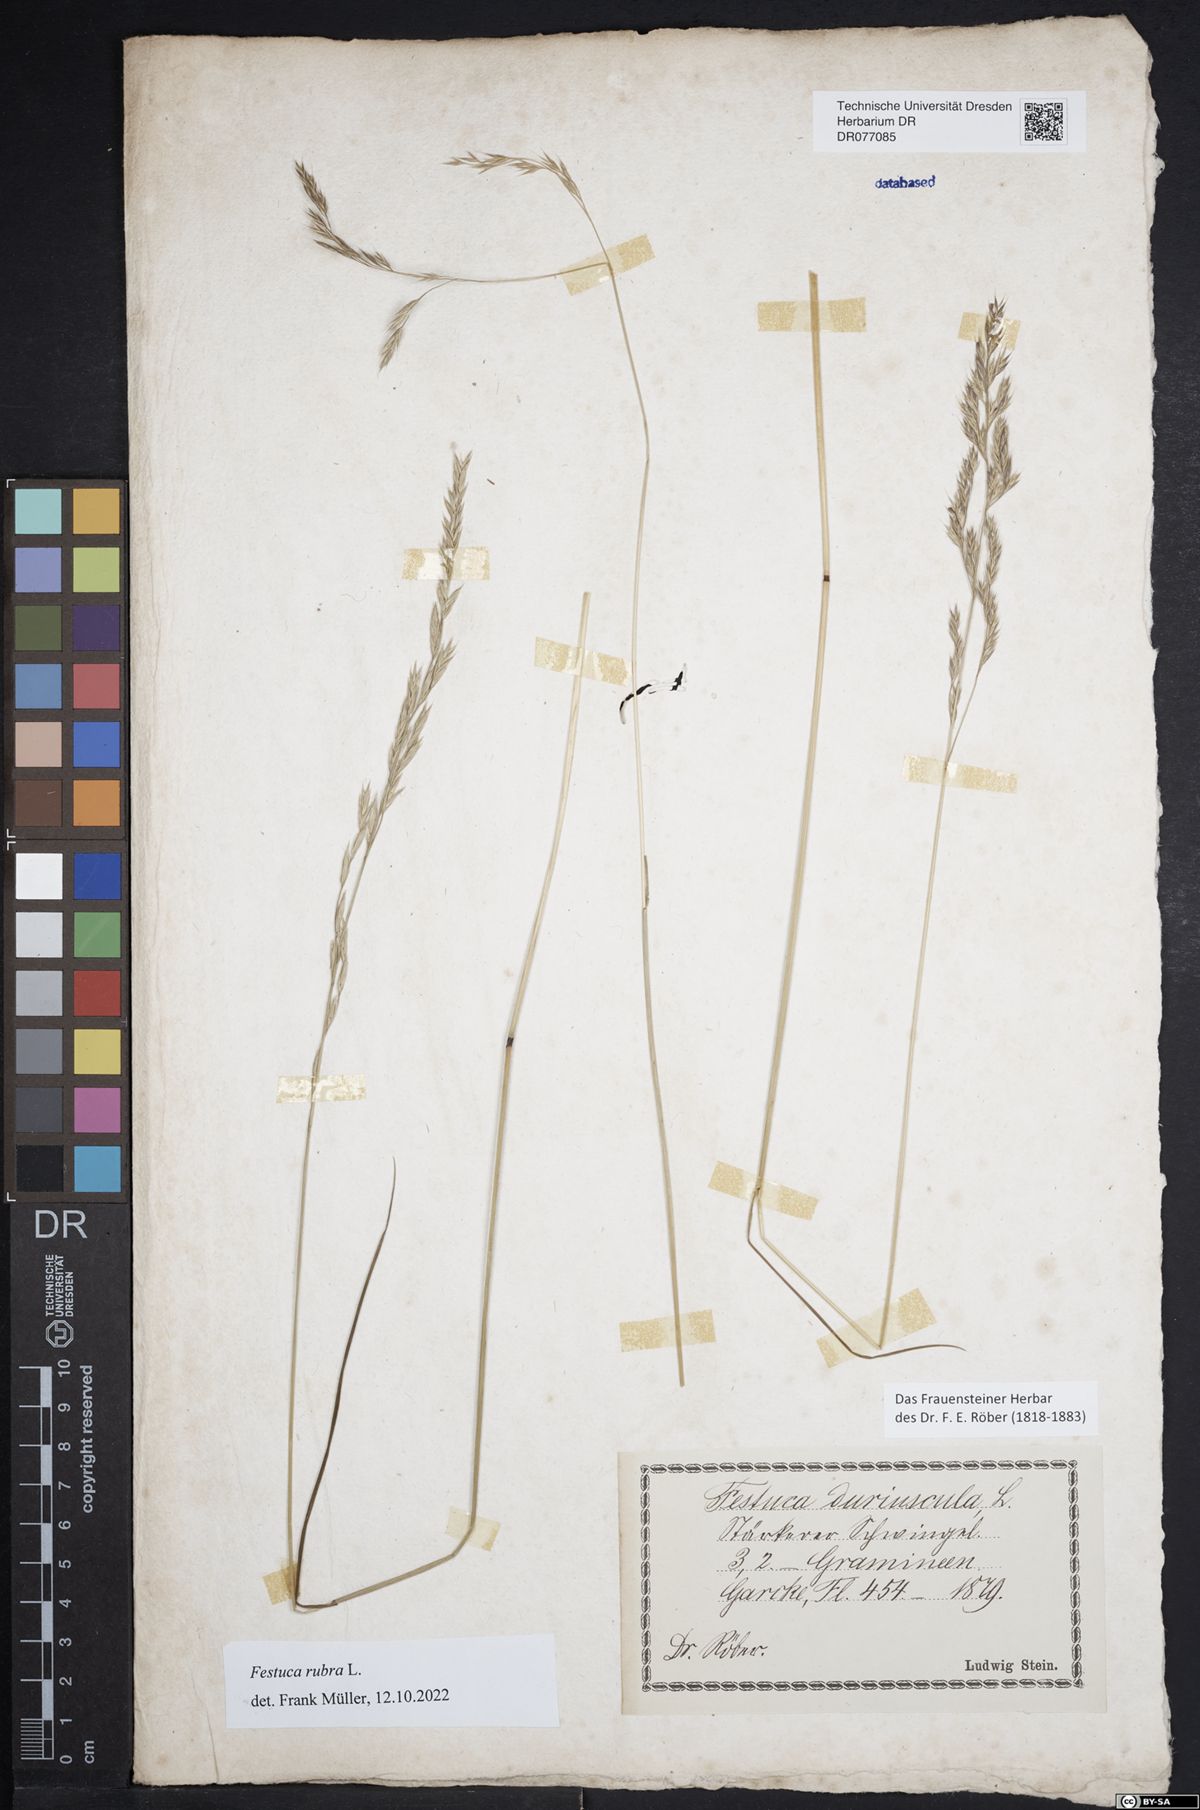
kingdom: Plantae
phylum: Tracheophyta
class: Liliopsida
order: Poales
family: Poaceae
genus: Festuca
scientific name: Festuca rubra
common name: Red fescue
